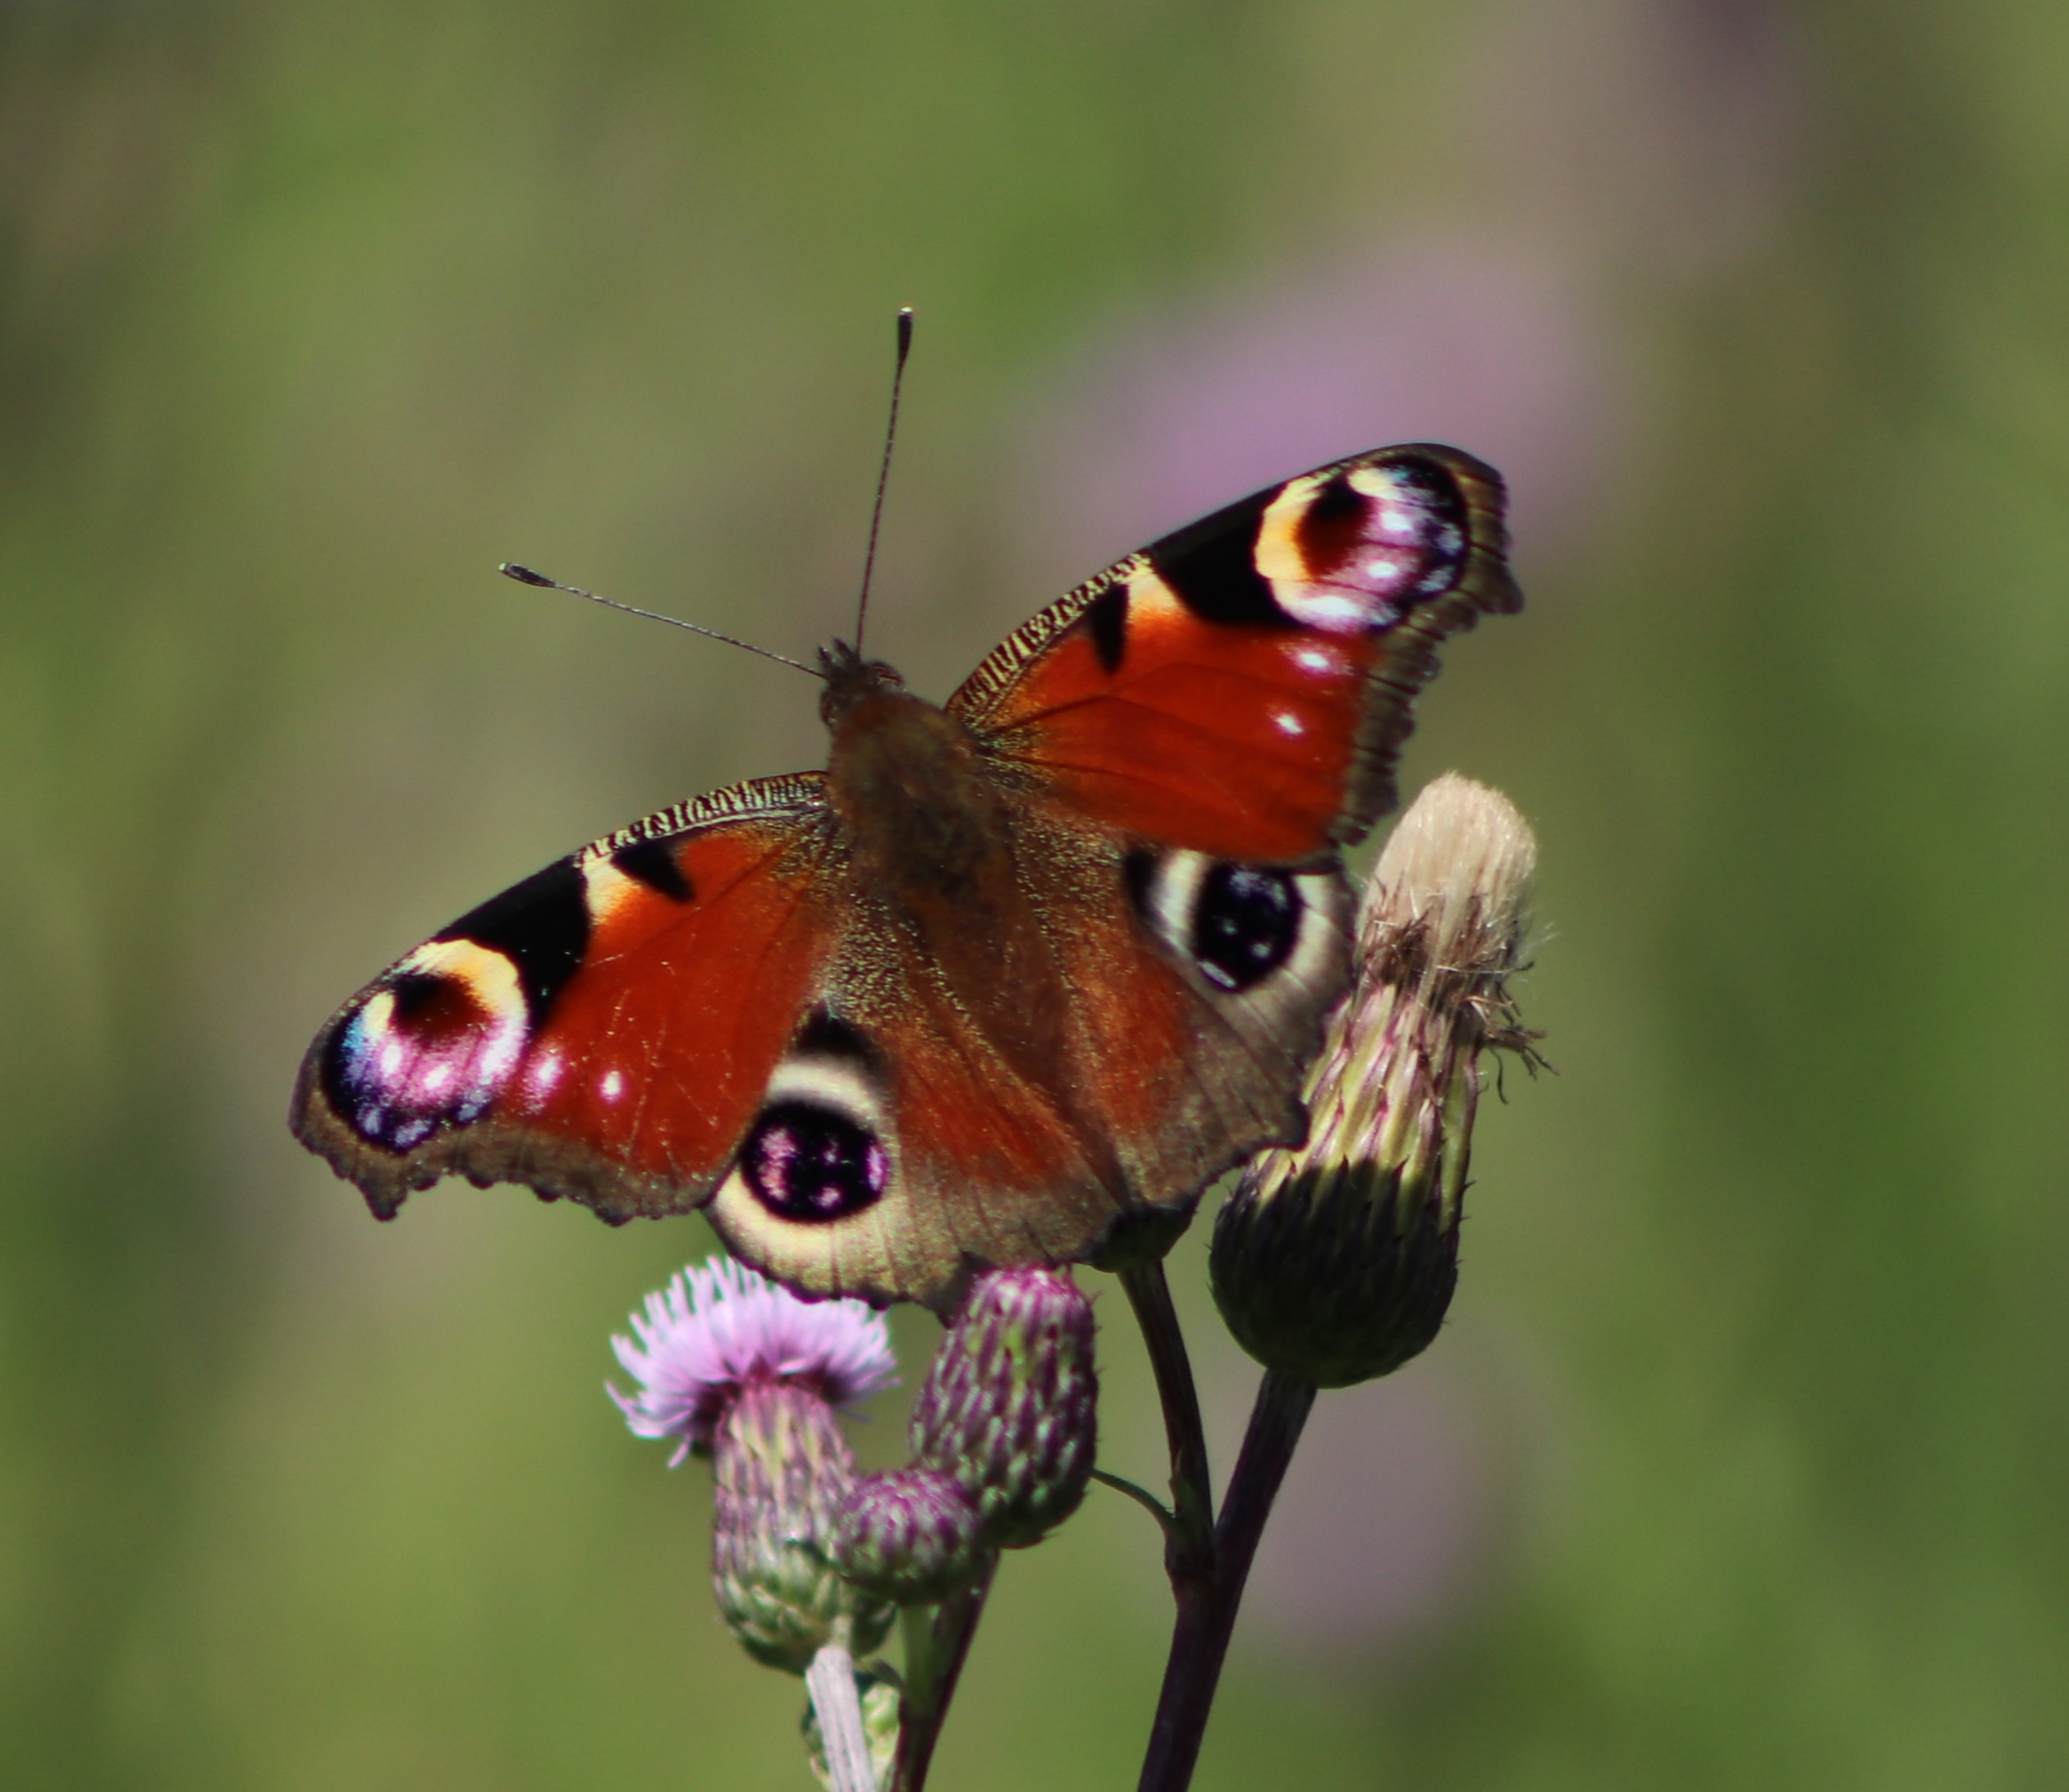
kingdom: Animalia
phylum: Arthropoda
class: Insecta
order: Lepidoptera
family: Nymphalidae
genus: Aglais
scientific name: Aglais io
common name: Dagpåfugleøje
